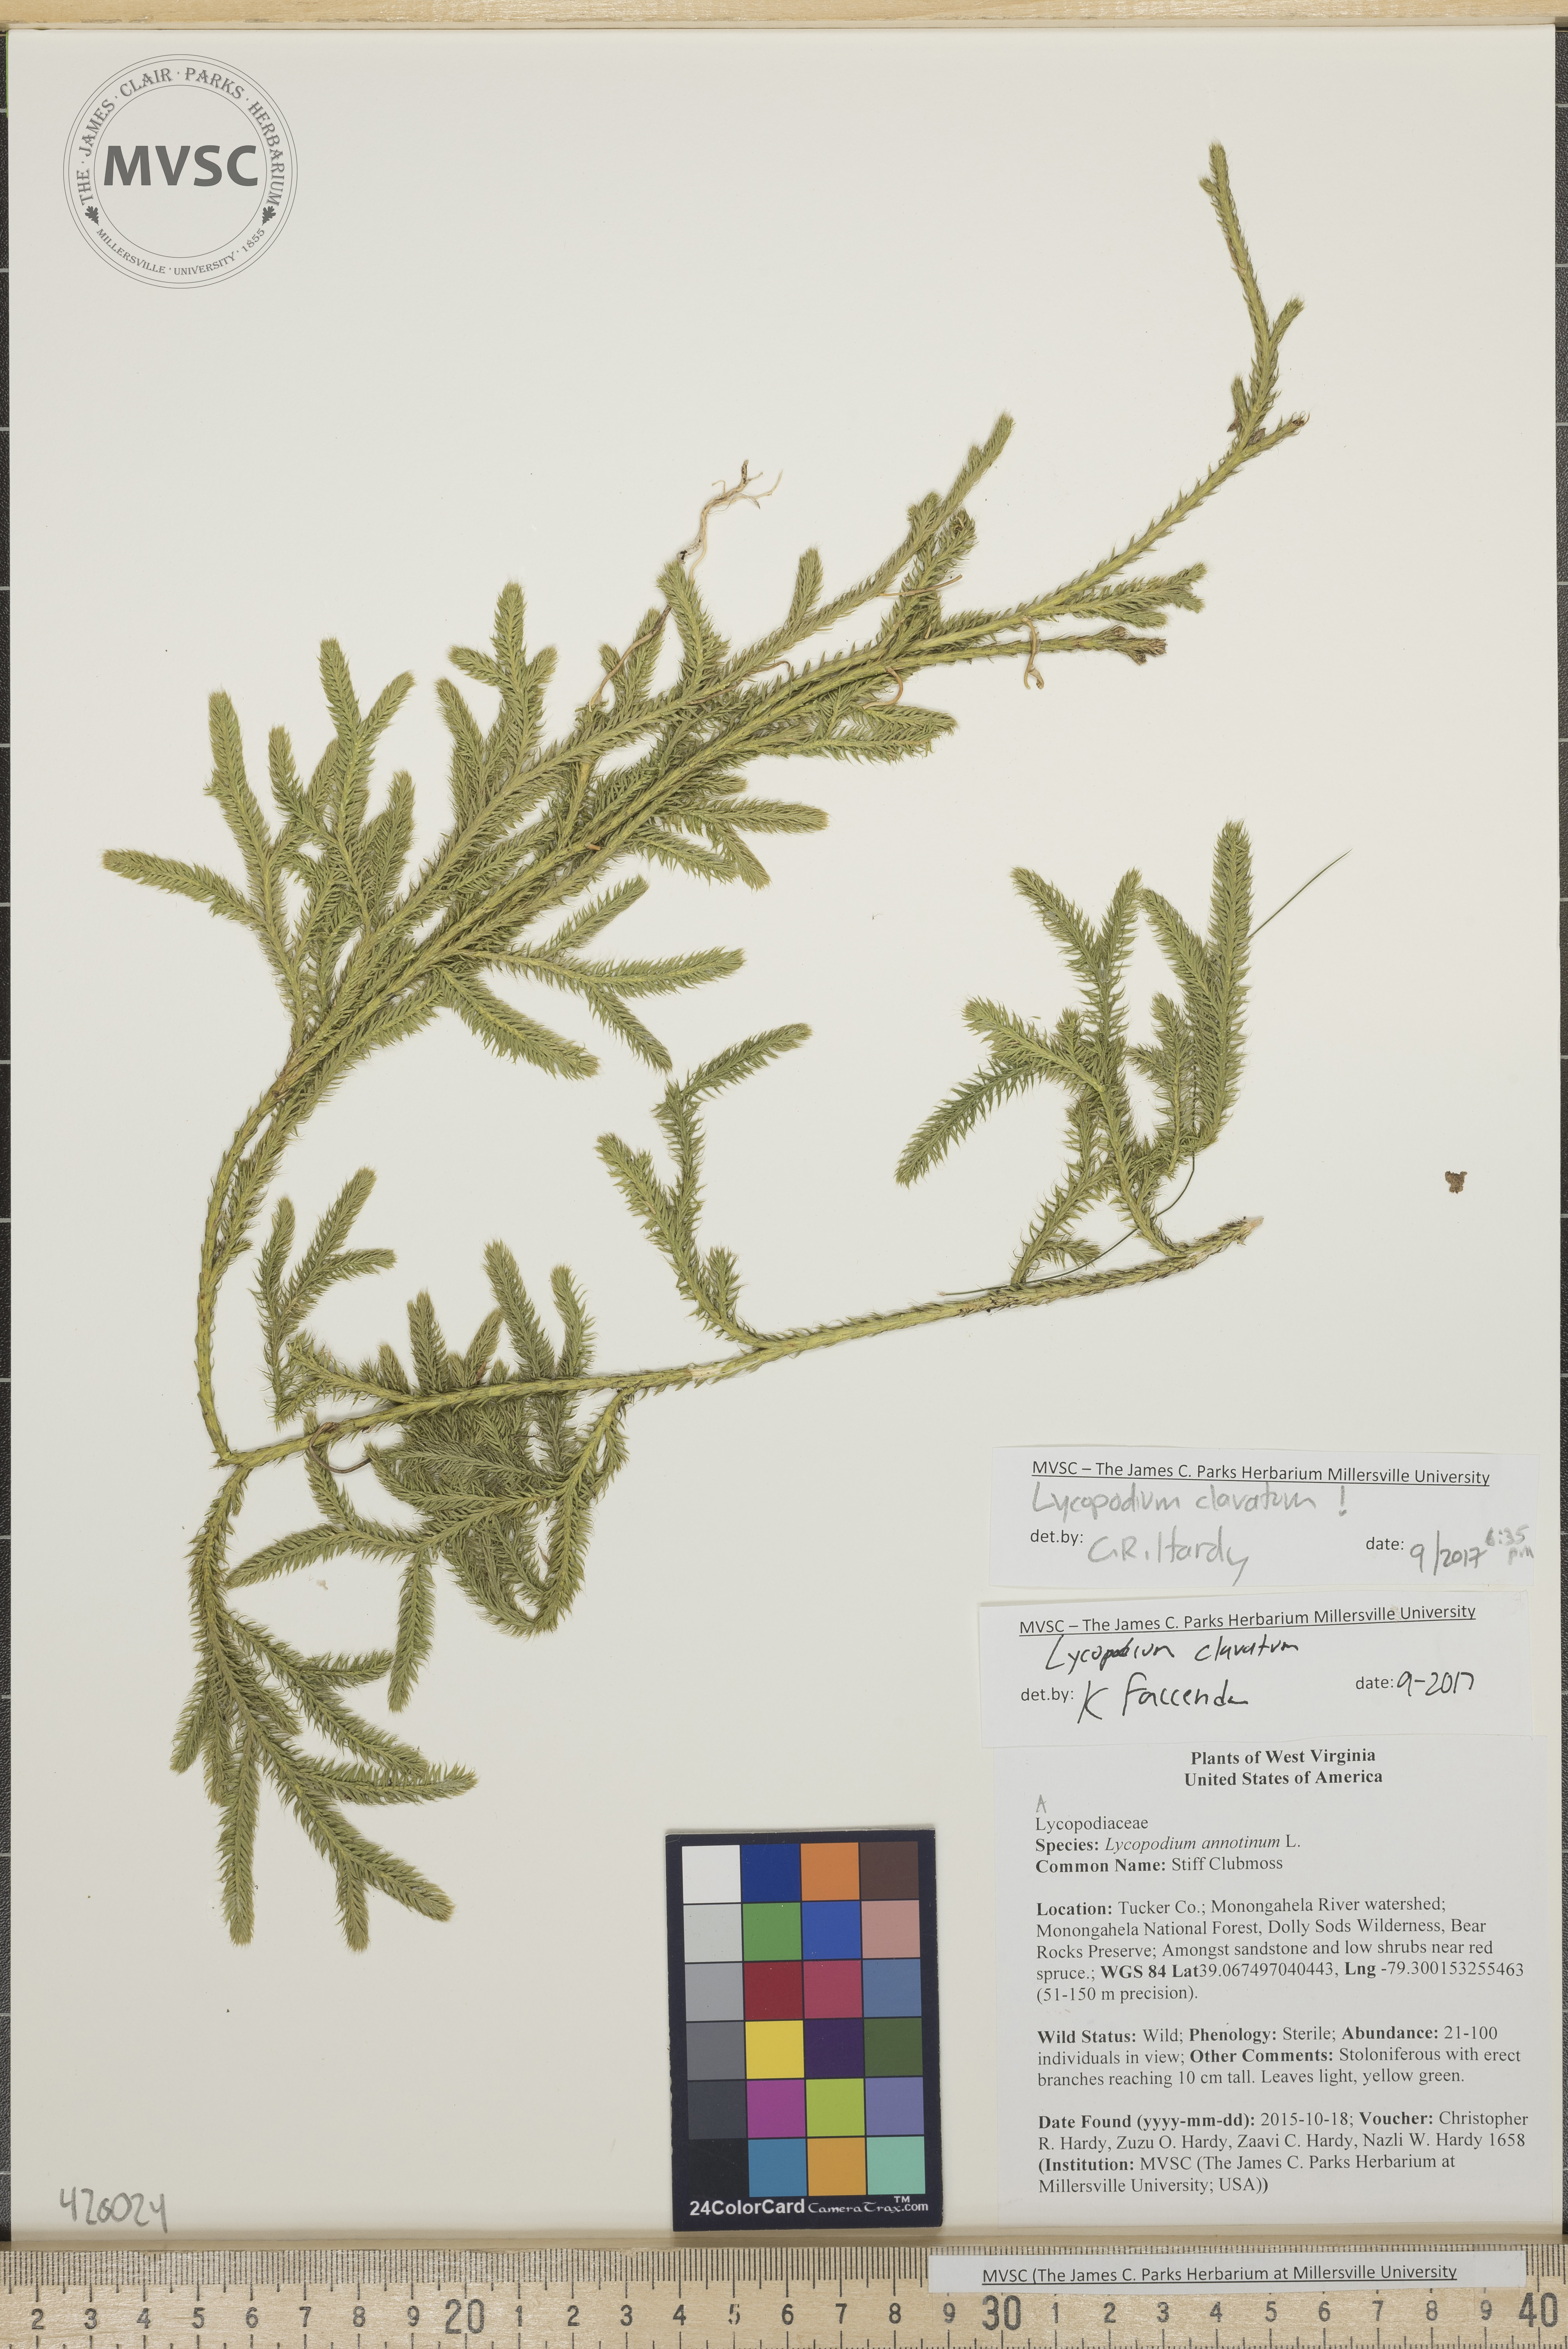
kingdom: Plantae
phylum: Tracheophyta
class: Lycopodiopsida
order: Lycopodiales
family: Lycopodiaceae
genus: Lycopodium
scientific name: Lycopodium clavatum
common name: Stiff Clubmoss
